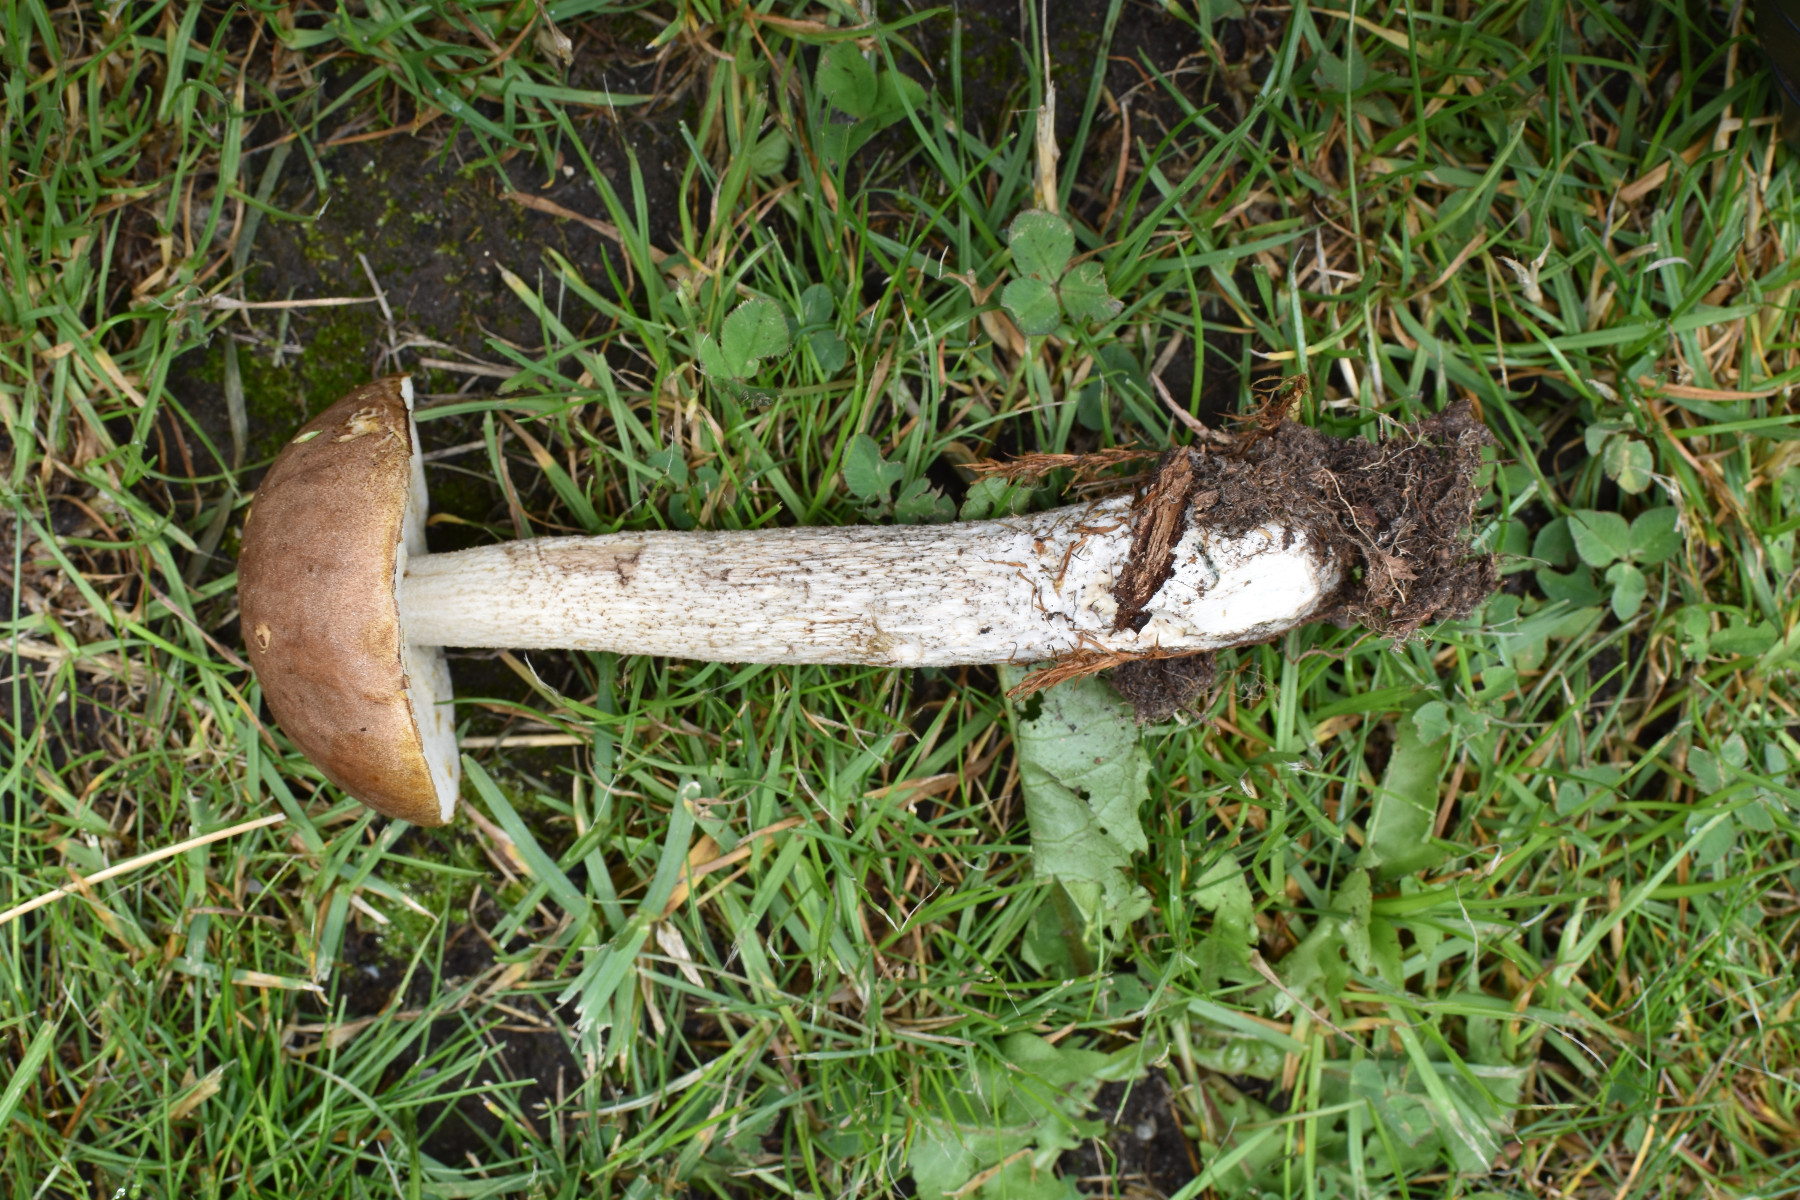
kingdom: Fungi
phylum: Basidiomycota
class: Agaricomycetes
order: Boletales
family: Boletaceae
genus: Leccinum
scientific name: Leccinum scabrum
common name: brun skælrørhat
